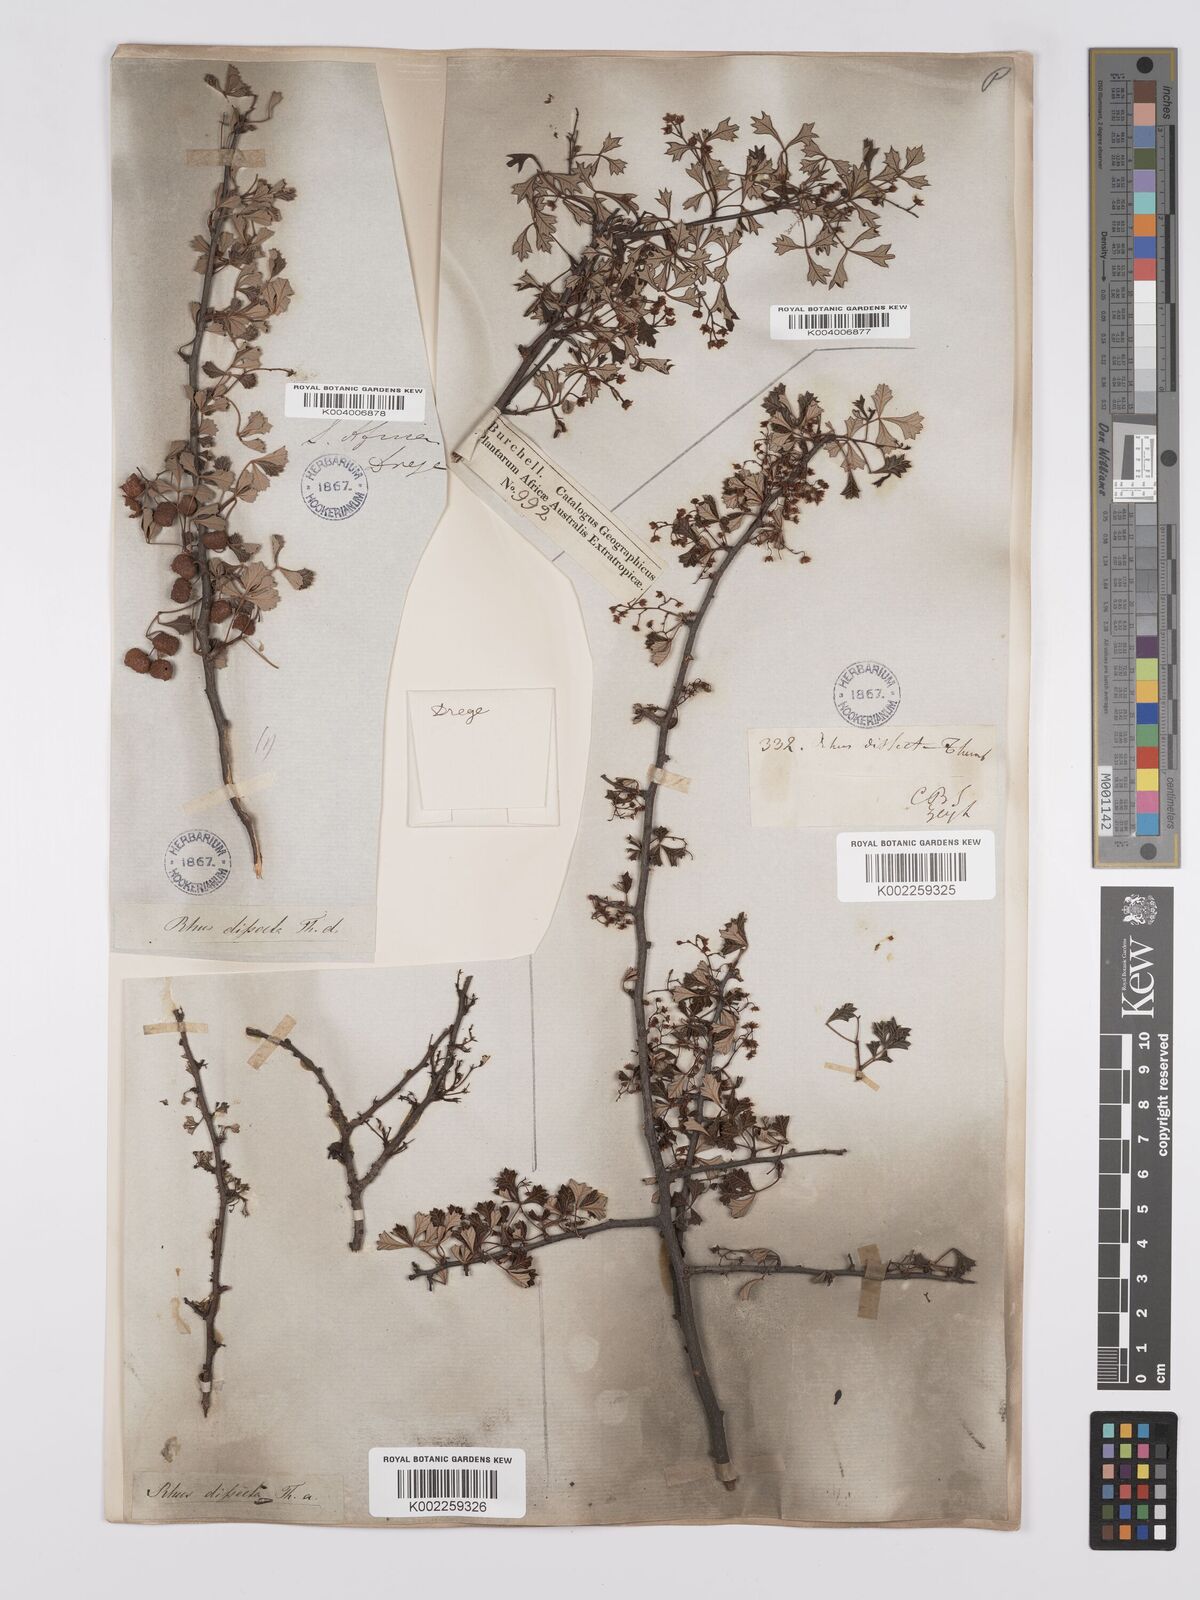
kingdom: Plantae
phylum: Tracheophyta
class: Magnoliopsida
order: Sapindales
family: Anacardiaceae
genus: Searsia
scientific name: Searsia dissecta
